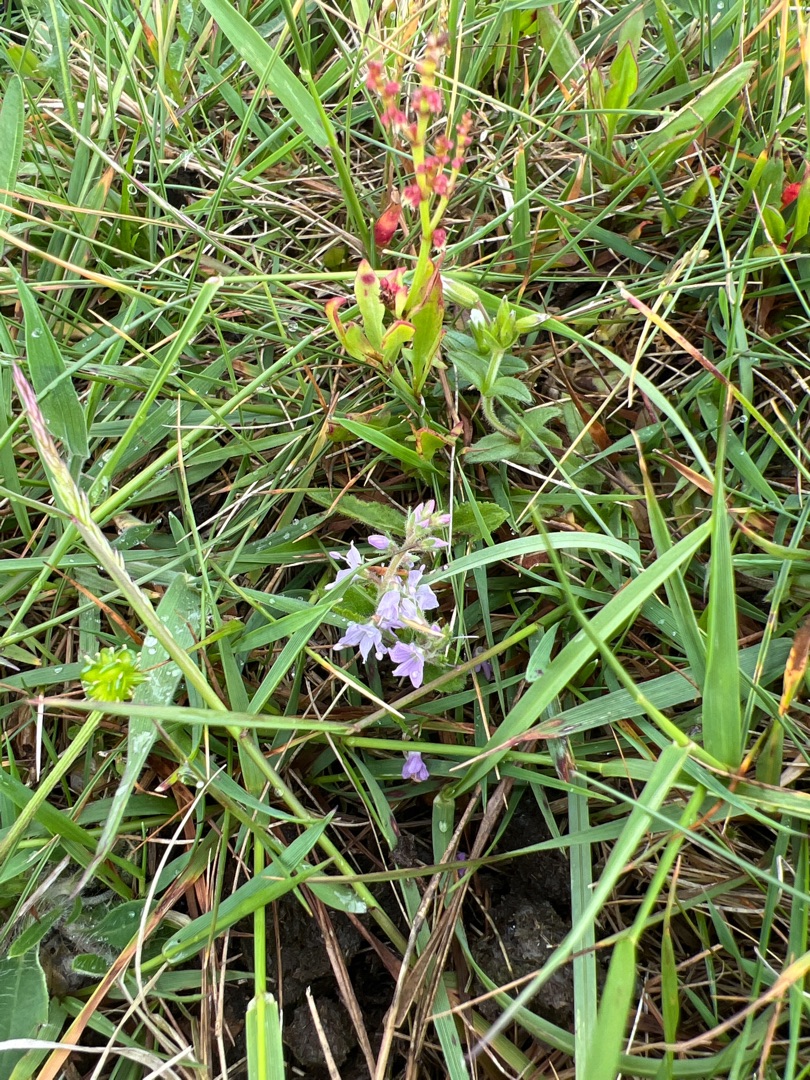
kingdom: Plantae
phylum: Tracheophyta
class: Magnoliopsida
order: Lamiales
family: Plantaginaceae
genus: Veronica
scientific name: Veronica officinalis
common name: Læge-ærenpris
